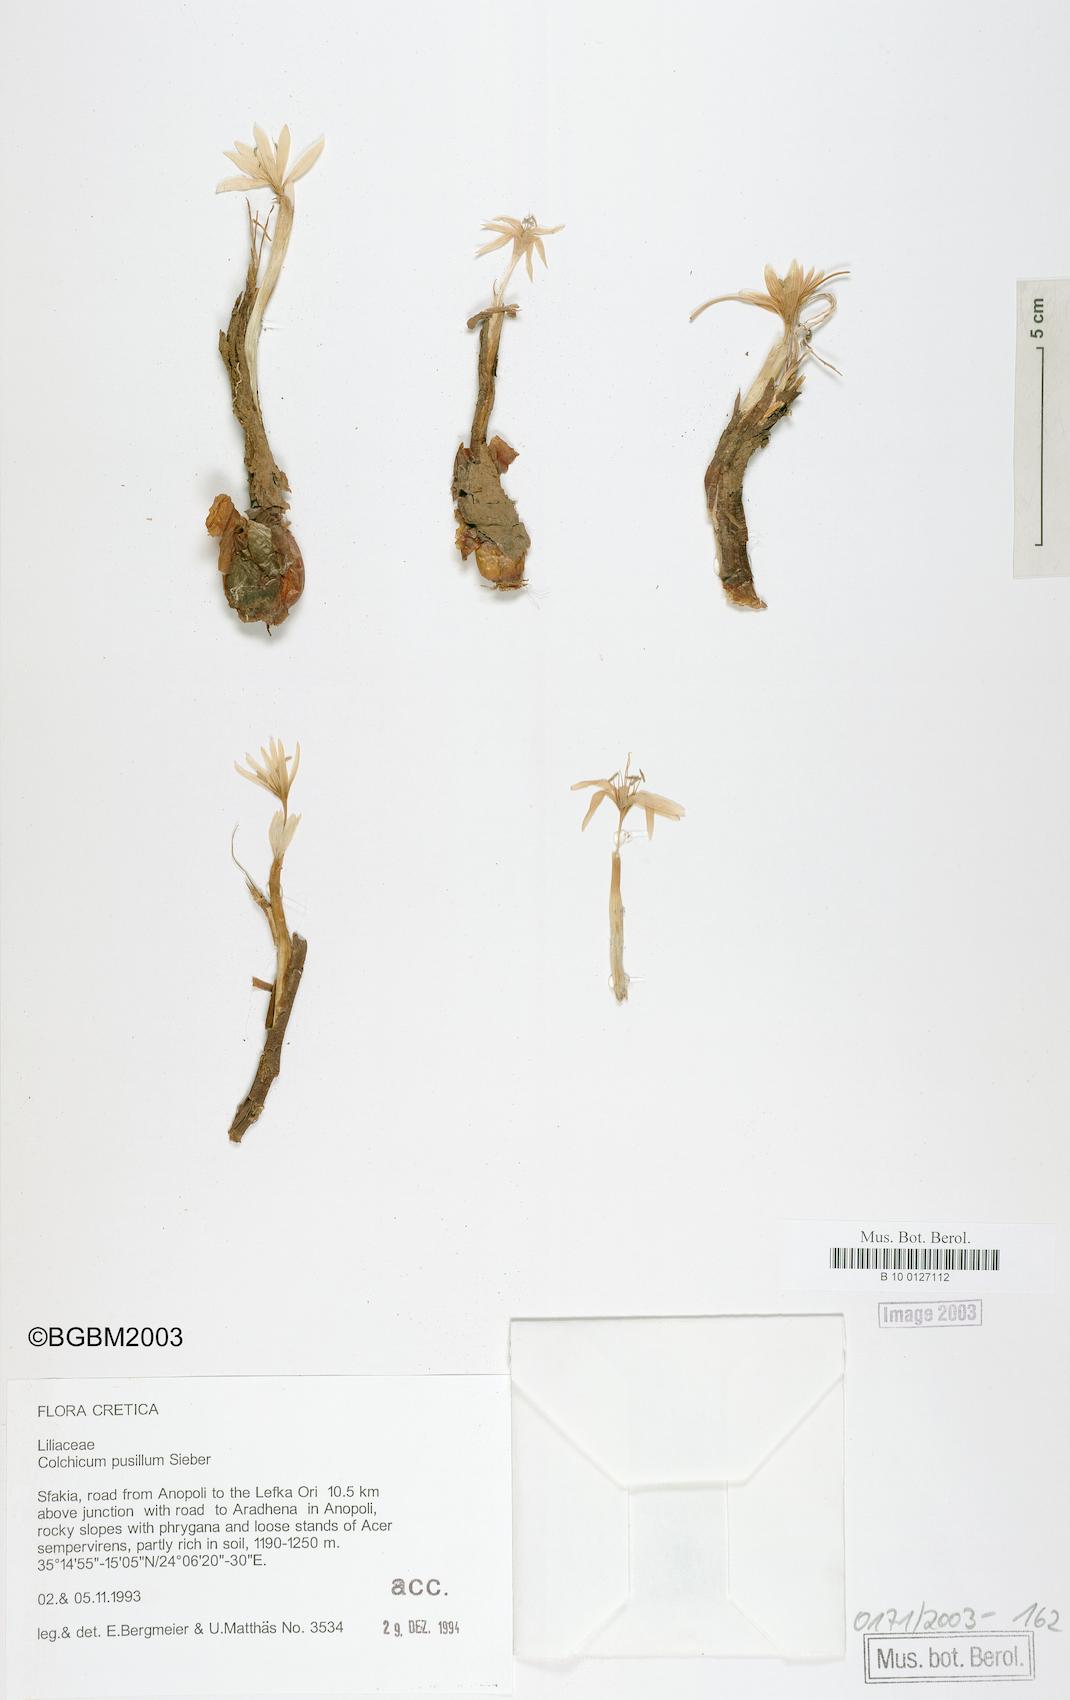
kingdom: Plantae
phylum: Tracheophyta
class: Liliopsida
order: Liliales
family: Colchicaceae
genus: Colchicum
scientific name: Colchicum pusillum
